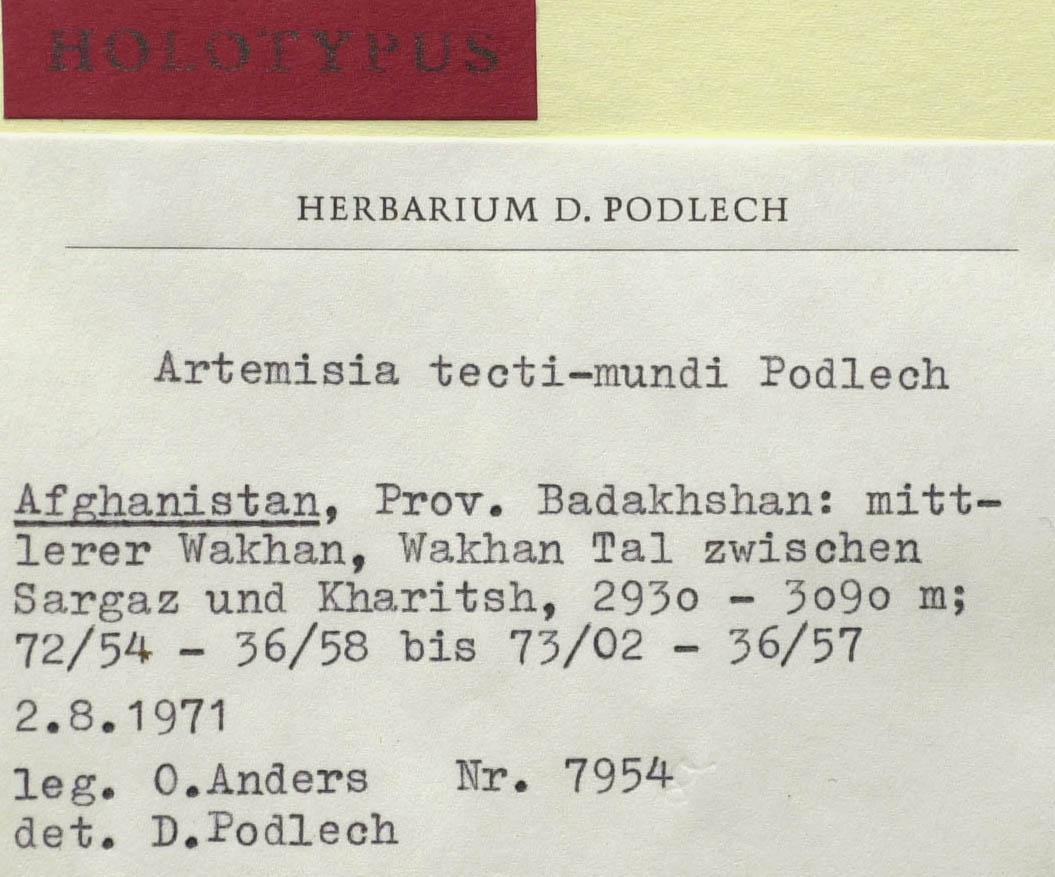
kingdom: Plantae
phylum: Tracheophyta
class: Magnoliopsida
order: Asterales
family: Asteraceae
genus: Artemisia
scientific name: Artemisia tecti-mundi
